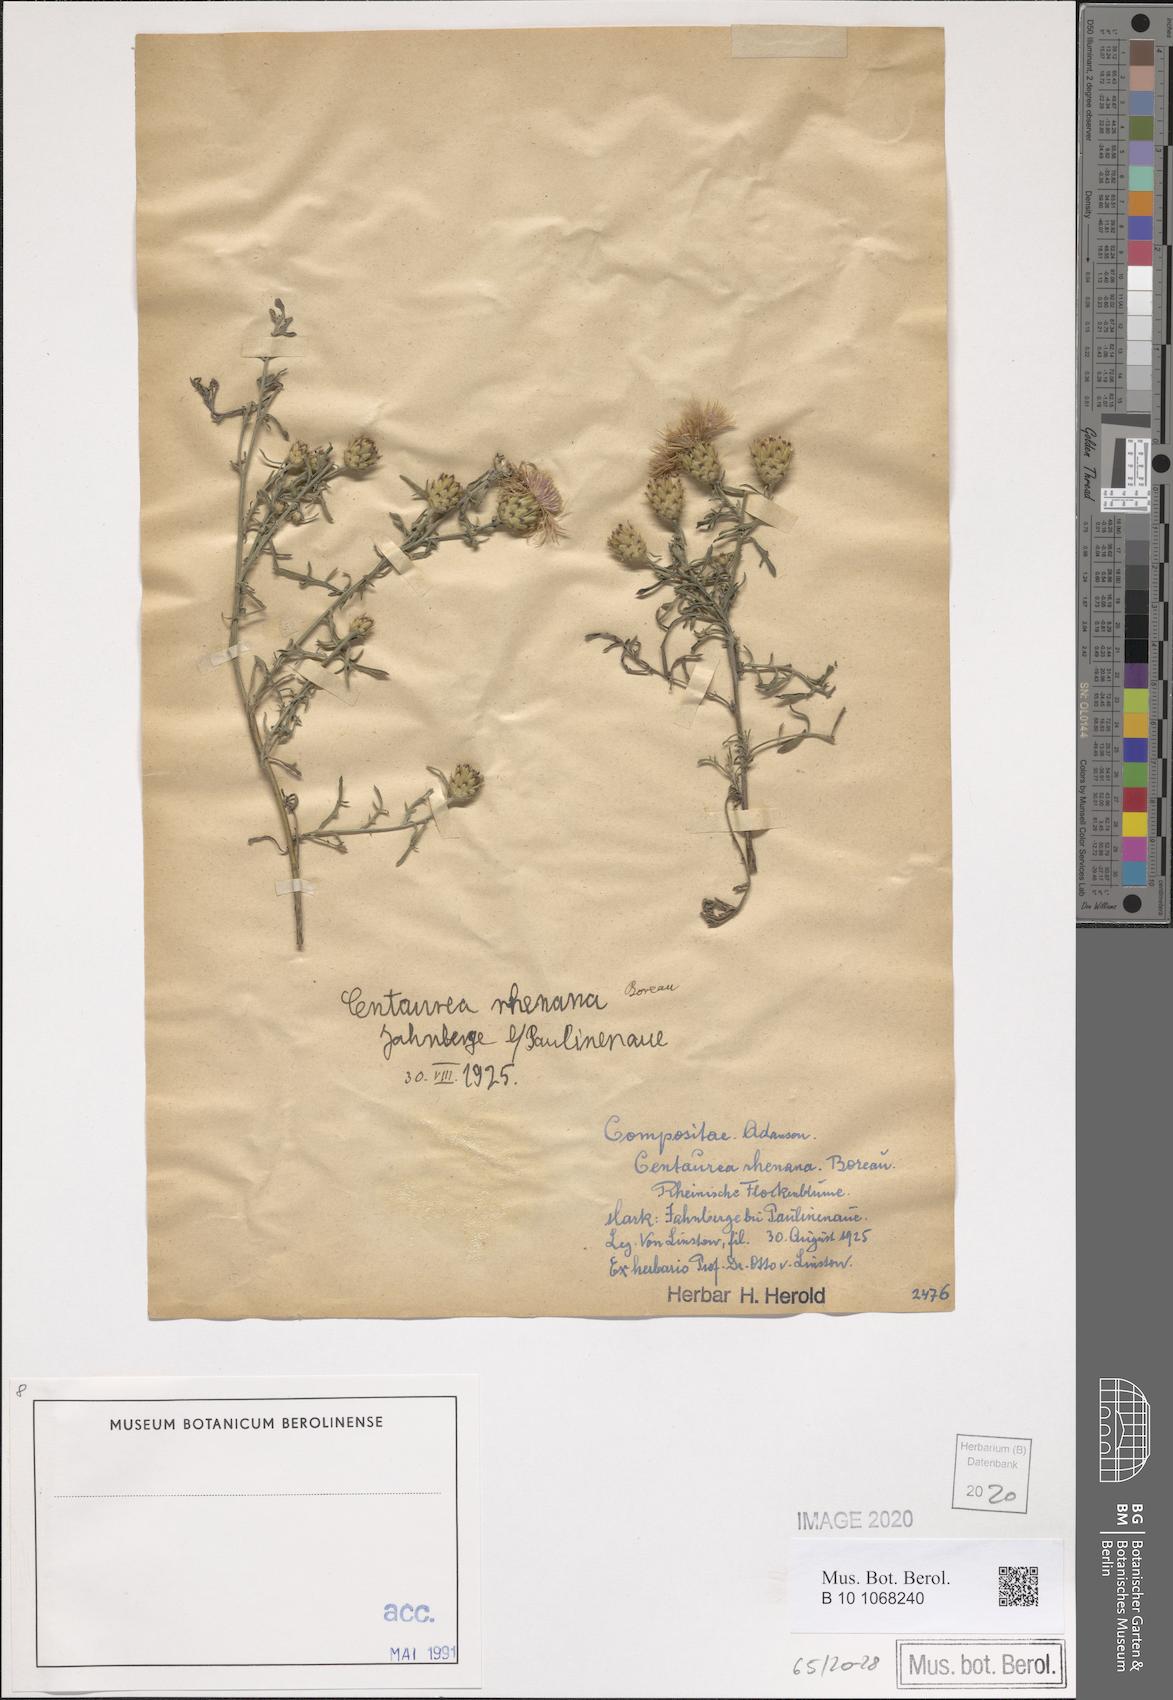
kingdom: Plantae
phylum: Tracheophyta
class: Magnoliopsida
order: Asterales
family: Asteraceae
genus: Centaurea
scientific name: Centaurea stoebe
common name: Spotted knapweed
